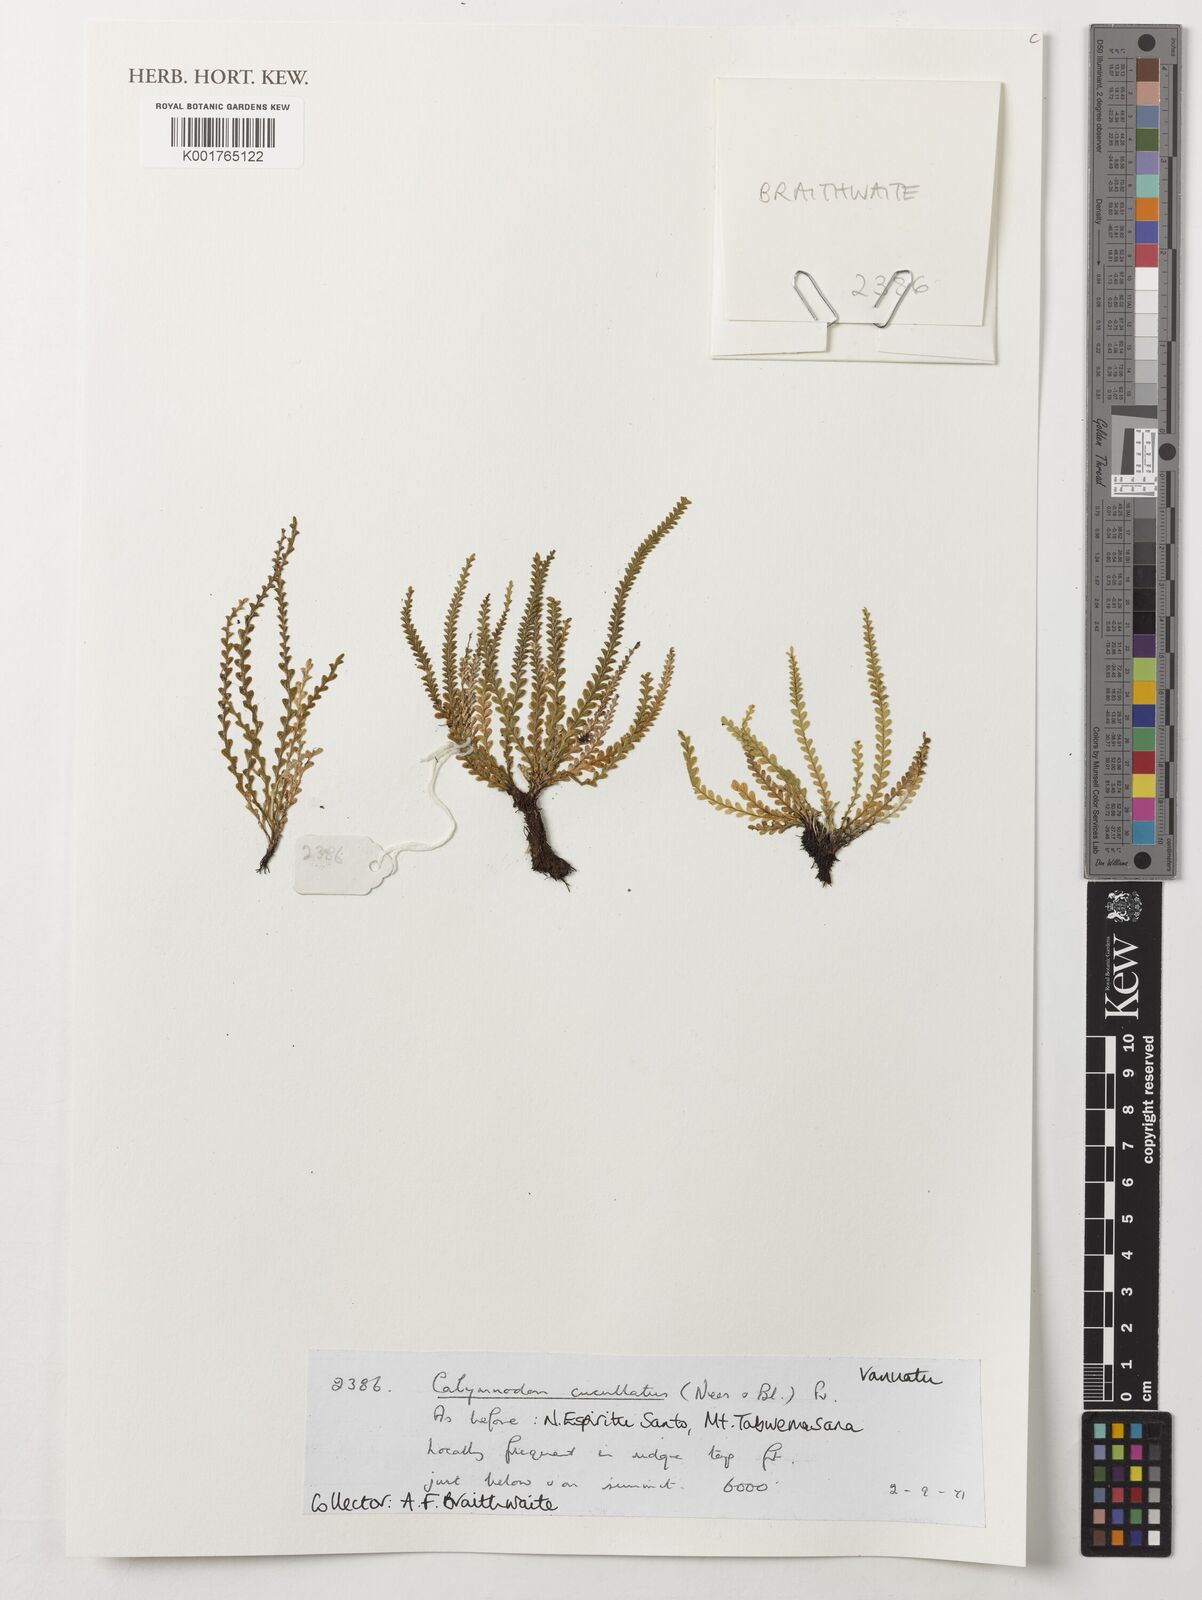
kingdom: Plantae
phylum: Tracheophyta
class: Polypodiopsida
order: Polypodiales
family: Polypodiaceae
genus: Calymmodon
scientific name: Calymmodon cucullatus
